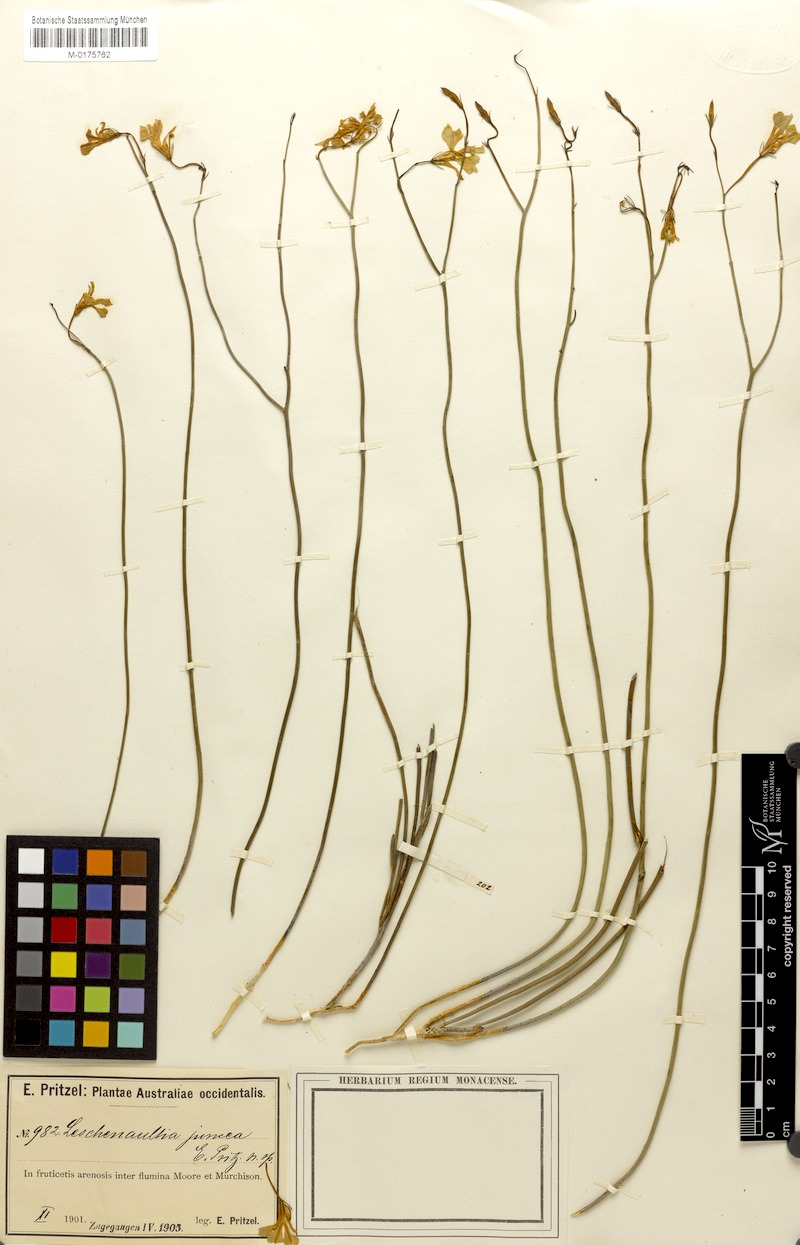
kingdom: Plantae
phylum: Tracheophyta
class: Magnoliopsida
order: Asterales
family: Goodeniaceae
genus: Lechenaultia
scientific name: Lechenaultia juncea
